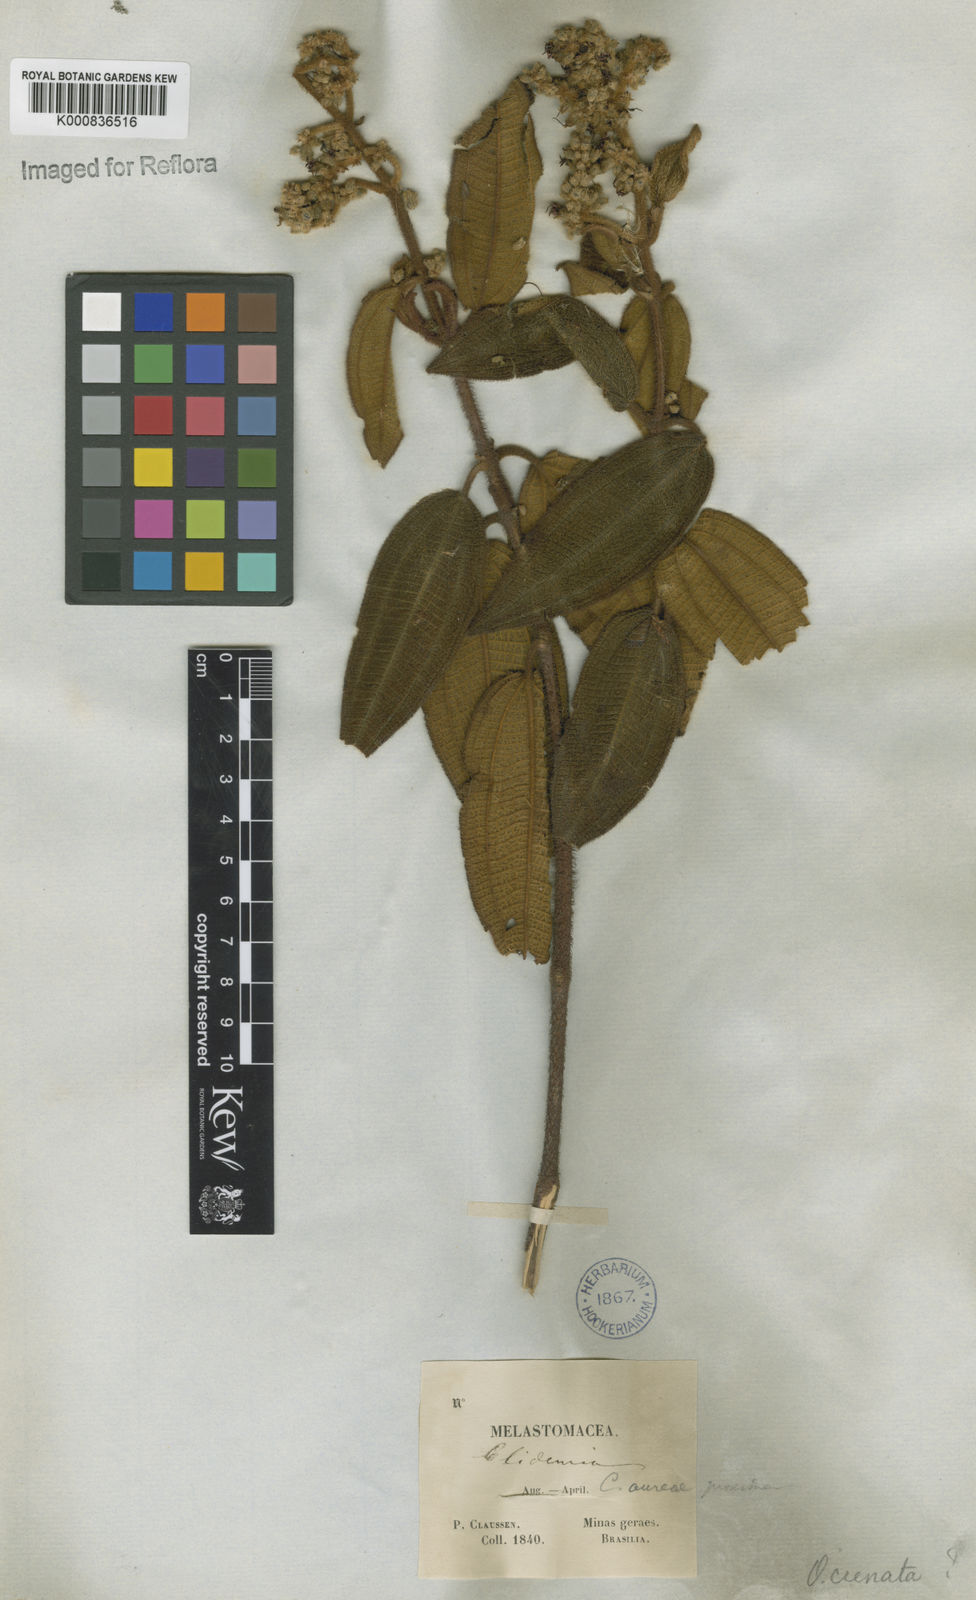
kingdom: Plantae
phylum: Tracheophyta
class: Magnoliopsida
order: Myrtales
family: Melastomataceae
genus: Miconia
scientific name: Miconia leacrenata
